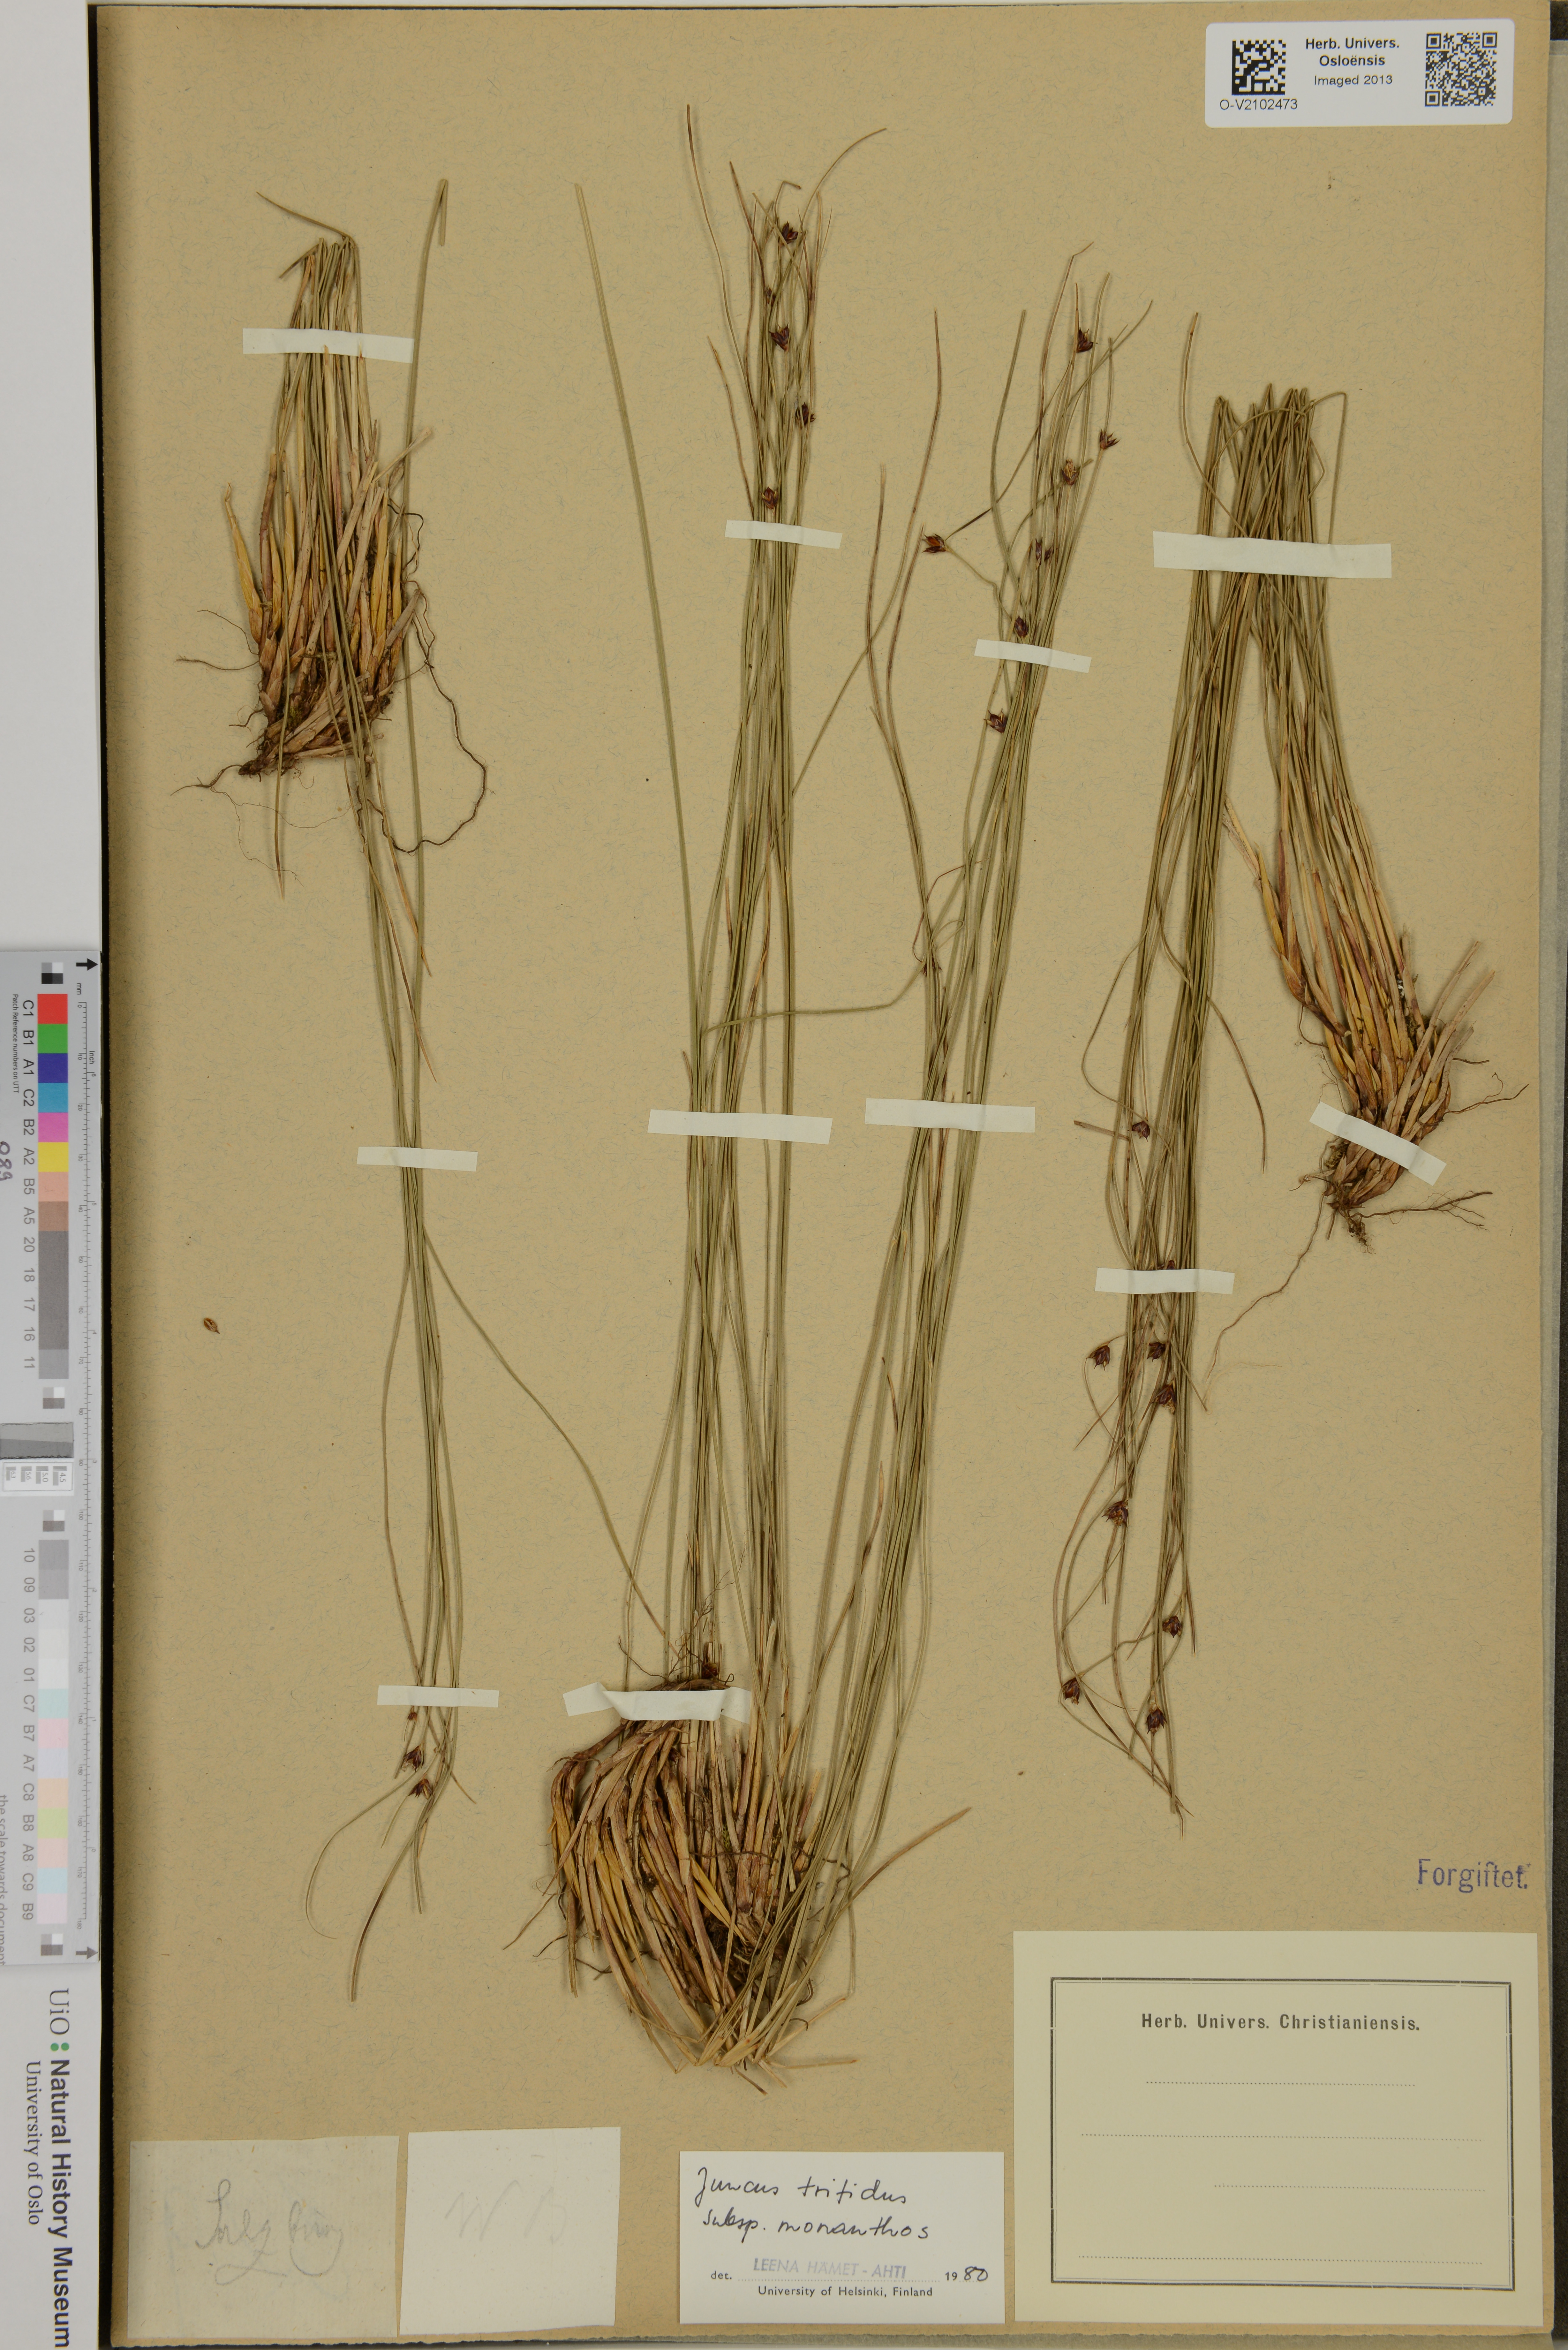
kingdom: Plantae
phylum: Tracheophyta
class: Liliopsida
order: Poales
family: Juncaceae
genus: Oreojuncus
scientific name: Oreojuncus trifidus
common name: Highland rush
